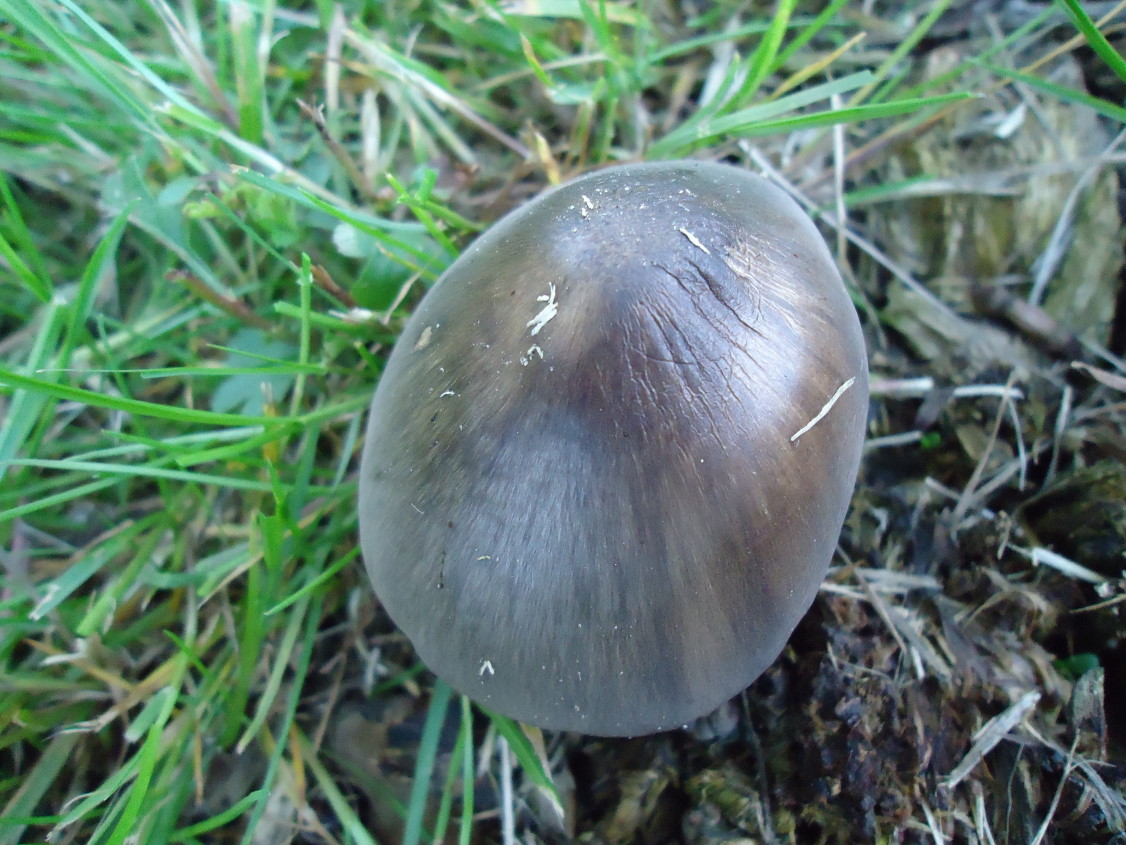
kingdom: Fungi
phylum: Basidiomycota
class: Agaricomycetes
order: Agaricales
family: Pluteaceae
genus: Pluteus
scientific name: Pluteus cervinus
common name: sodfarvet skærmhat
